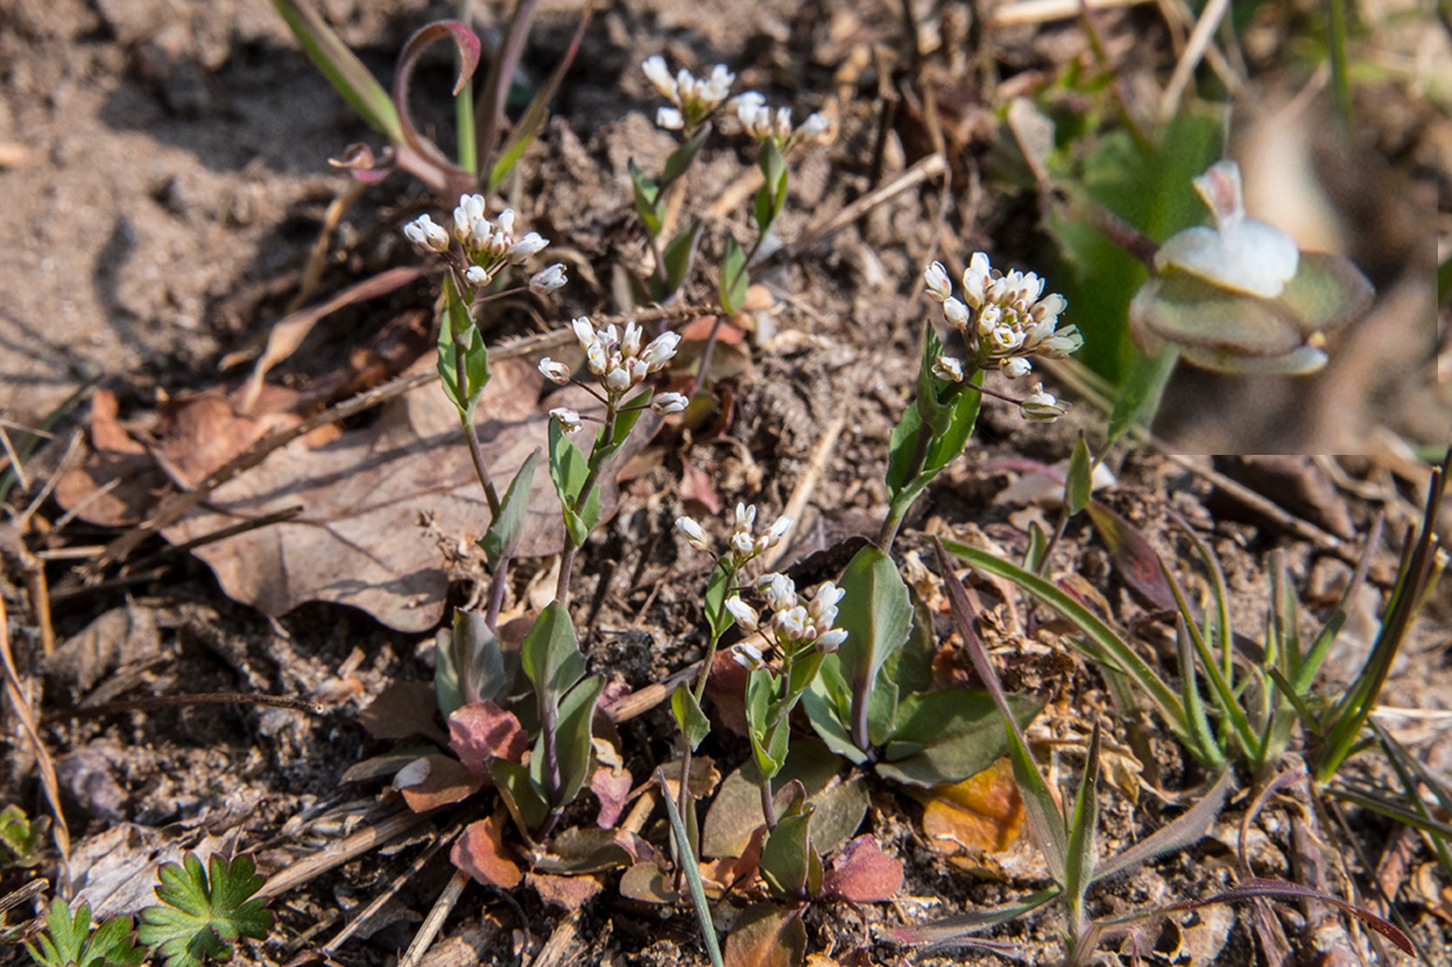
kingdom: Plantae
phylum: Tracheophyta
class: Magnoliopsida
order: Brassicales
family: Brassicaceae
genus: Noccaea
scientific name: Noccaea perfoliata
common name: Hjertebladet pengeurt
